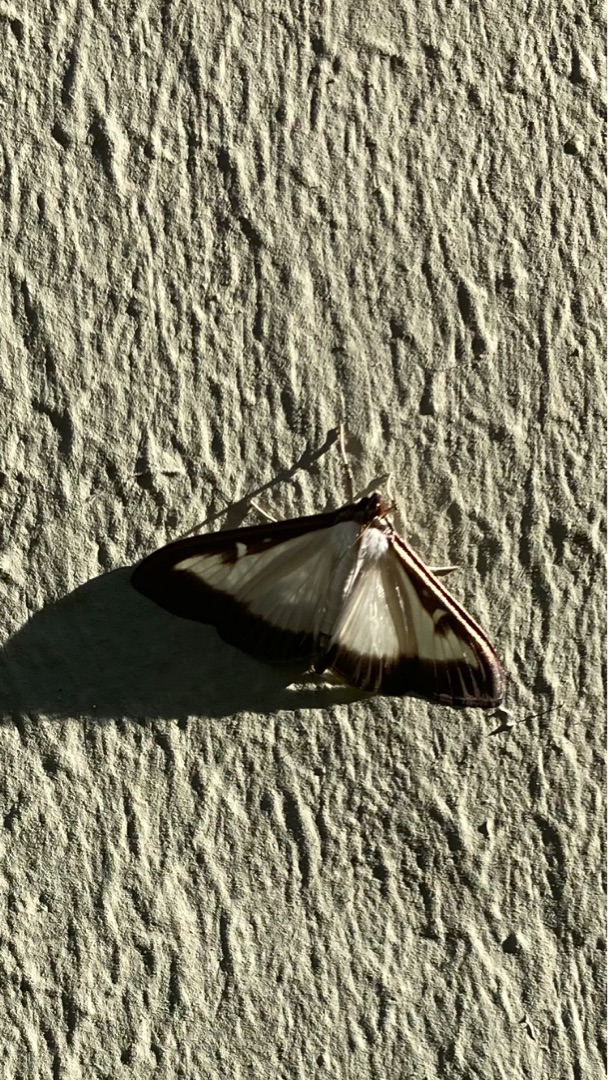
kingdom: Animalia
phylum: Arthropoda
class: Insecta
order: Lepidoptera
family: Crambidae
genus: Cydalima
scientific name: Cydalima perspectalis
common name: Buksbomhalvmøl
